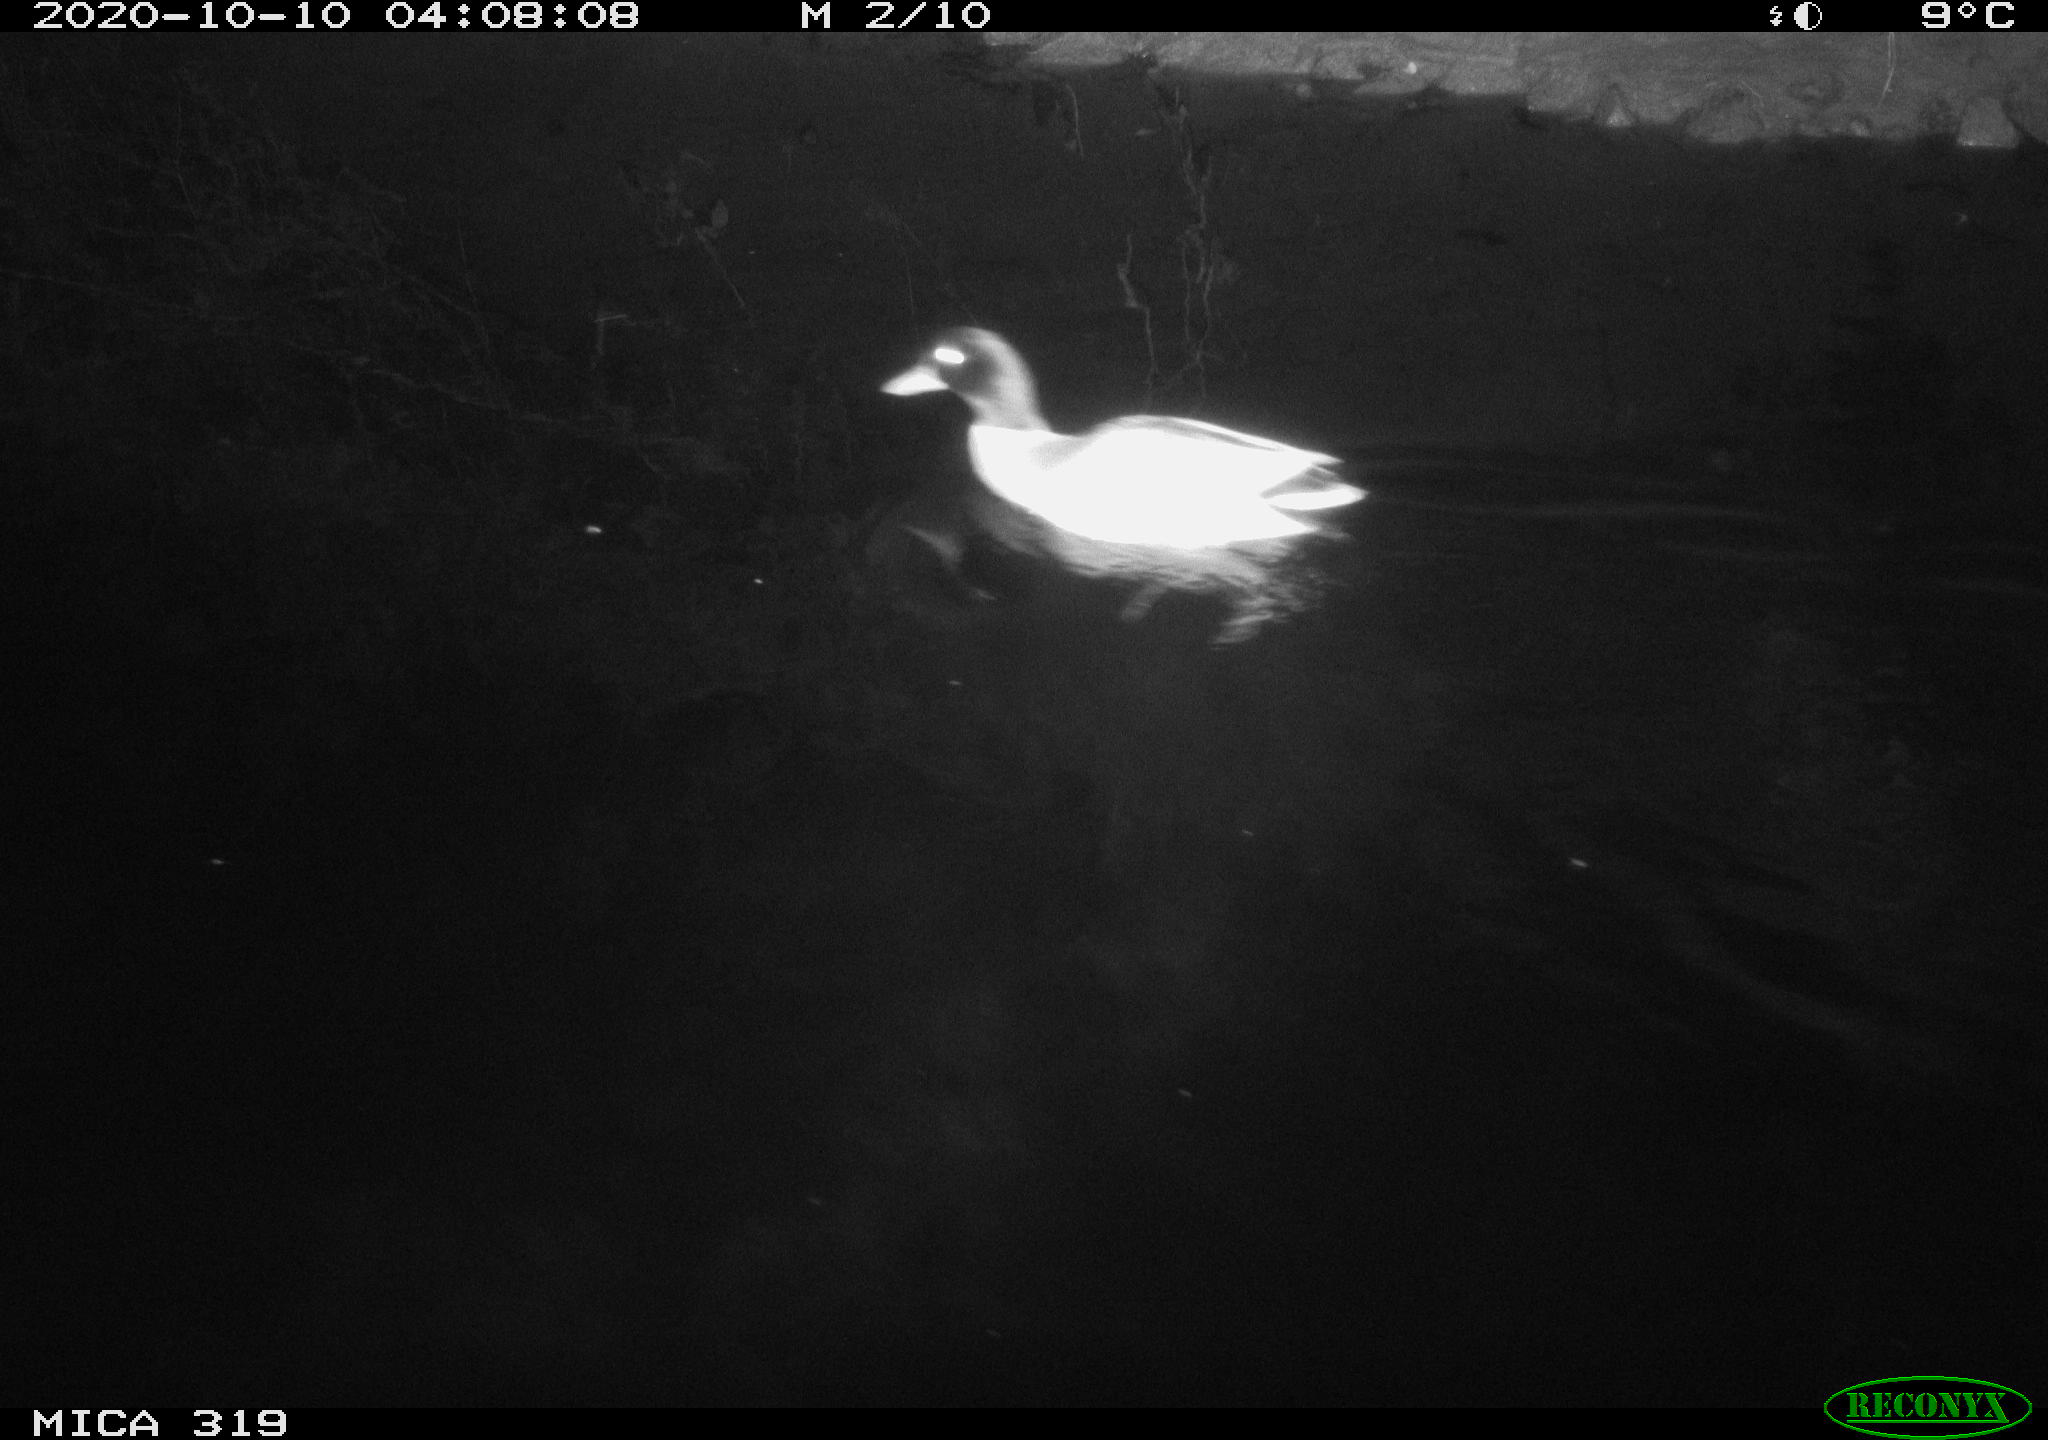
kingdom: Animalia
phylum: Chordata
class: Aves
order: Anseriformes
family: Anatidae
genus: Anas
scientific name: Anas platyrhynchos
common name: Mallard
